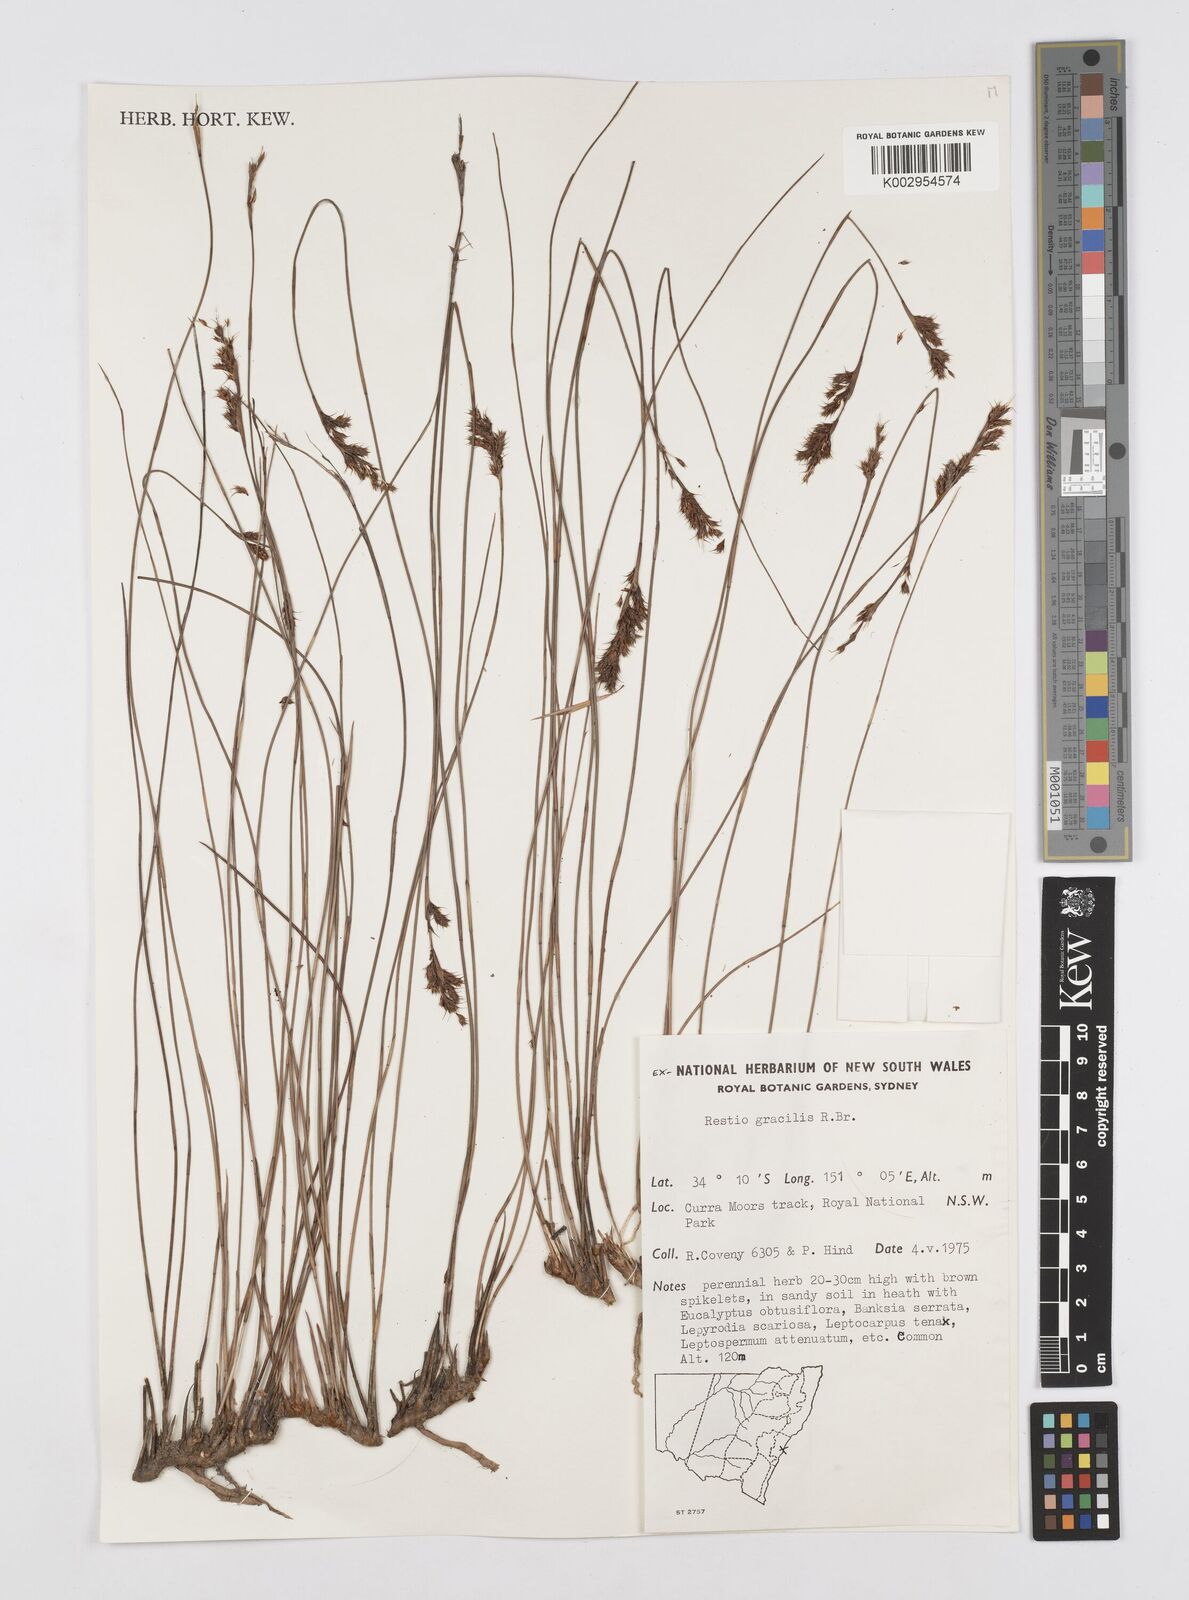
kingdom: Plantae
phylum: Tracheophyta
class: Liliopsida
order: Poales
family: Restionaceae
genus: Baloskion
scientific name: Baloskion gracile
